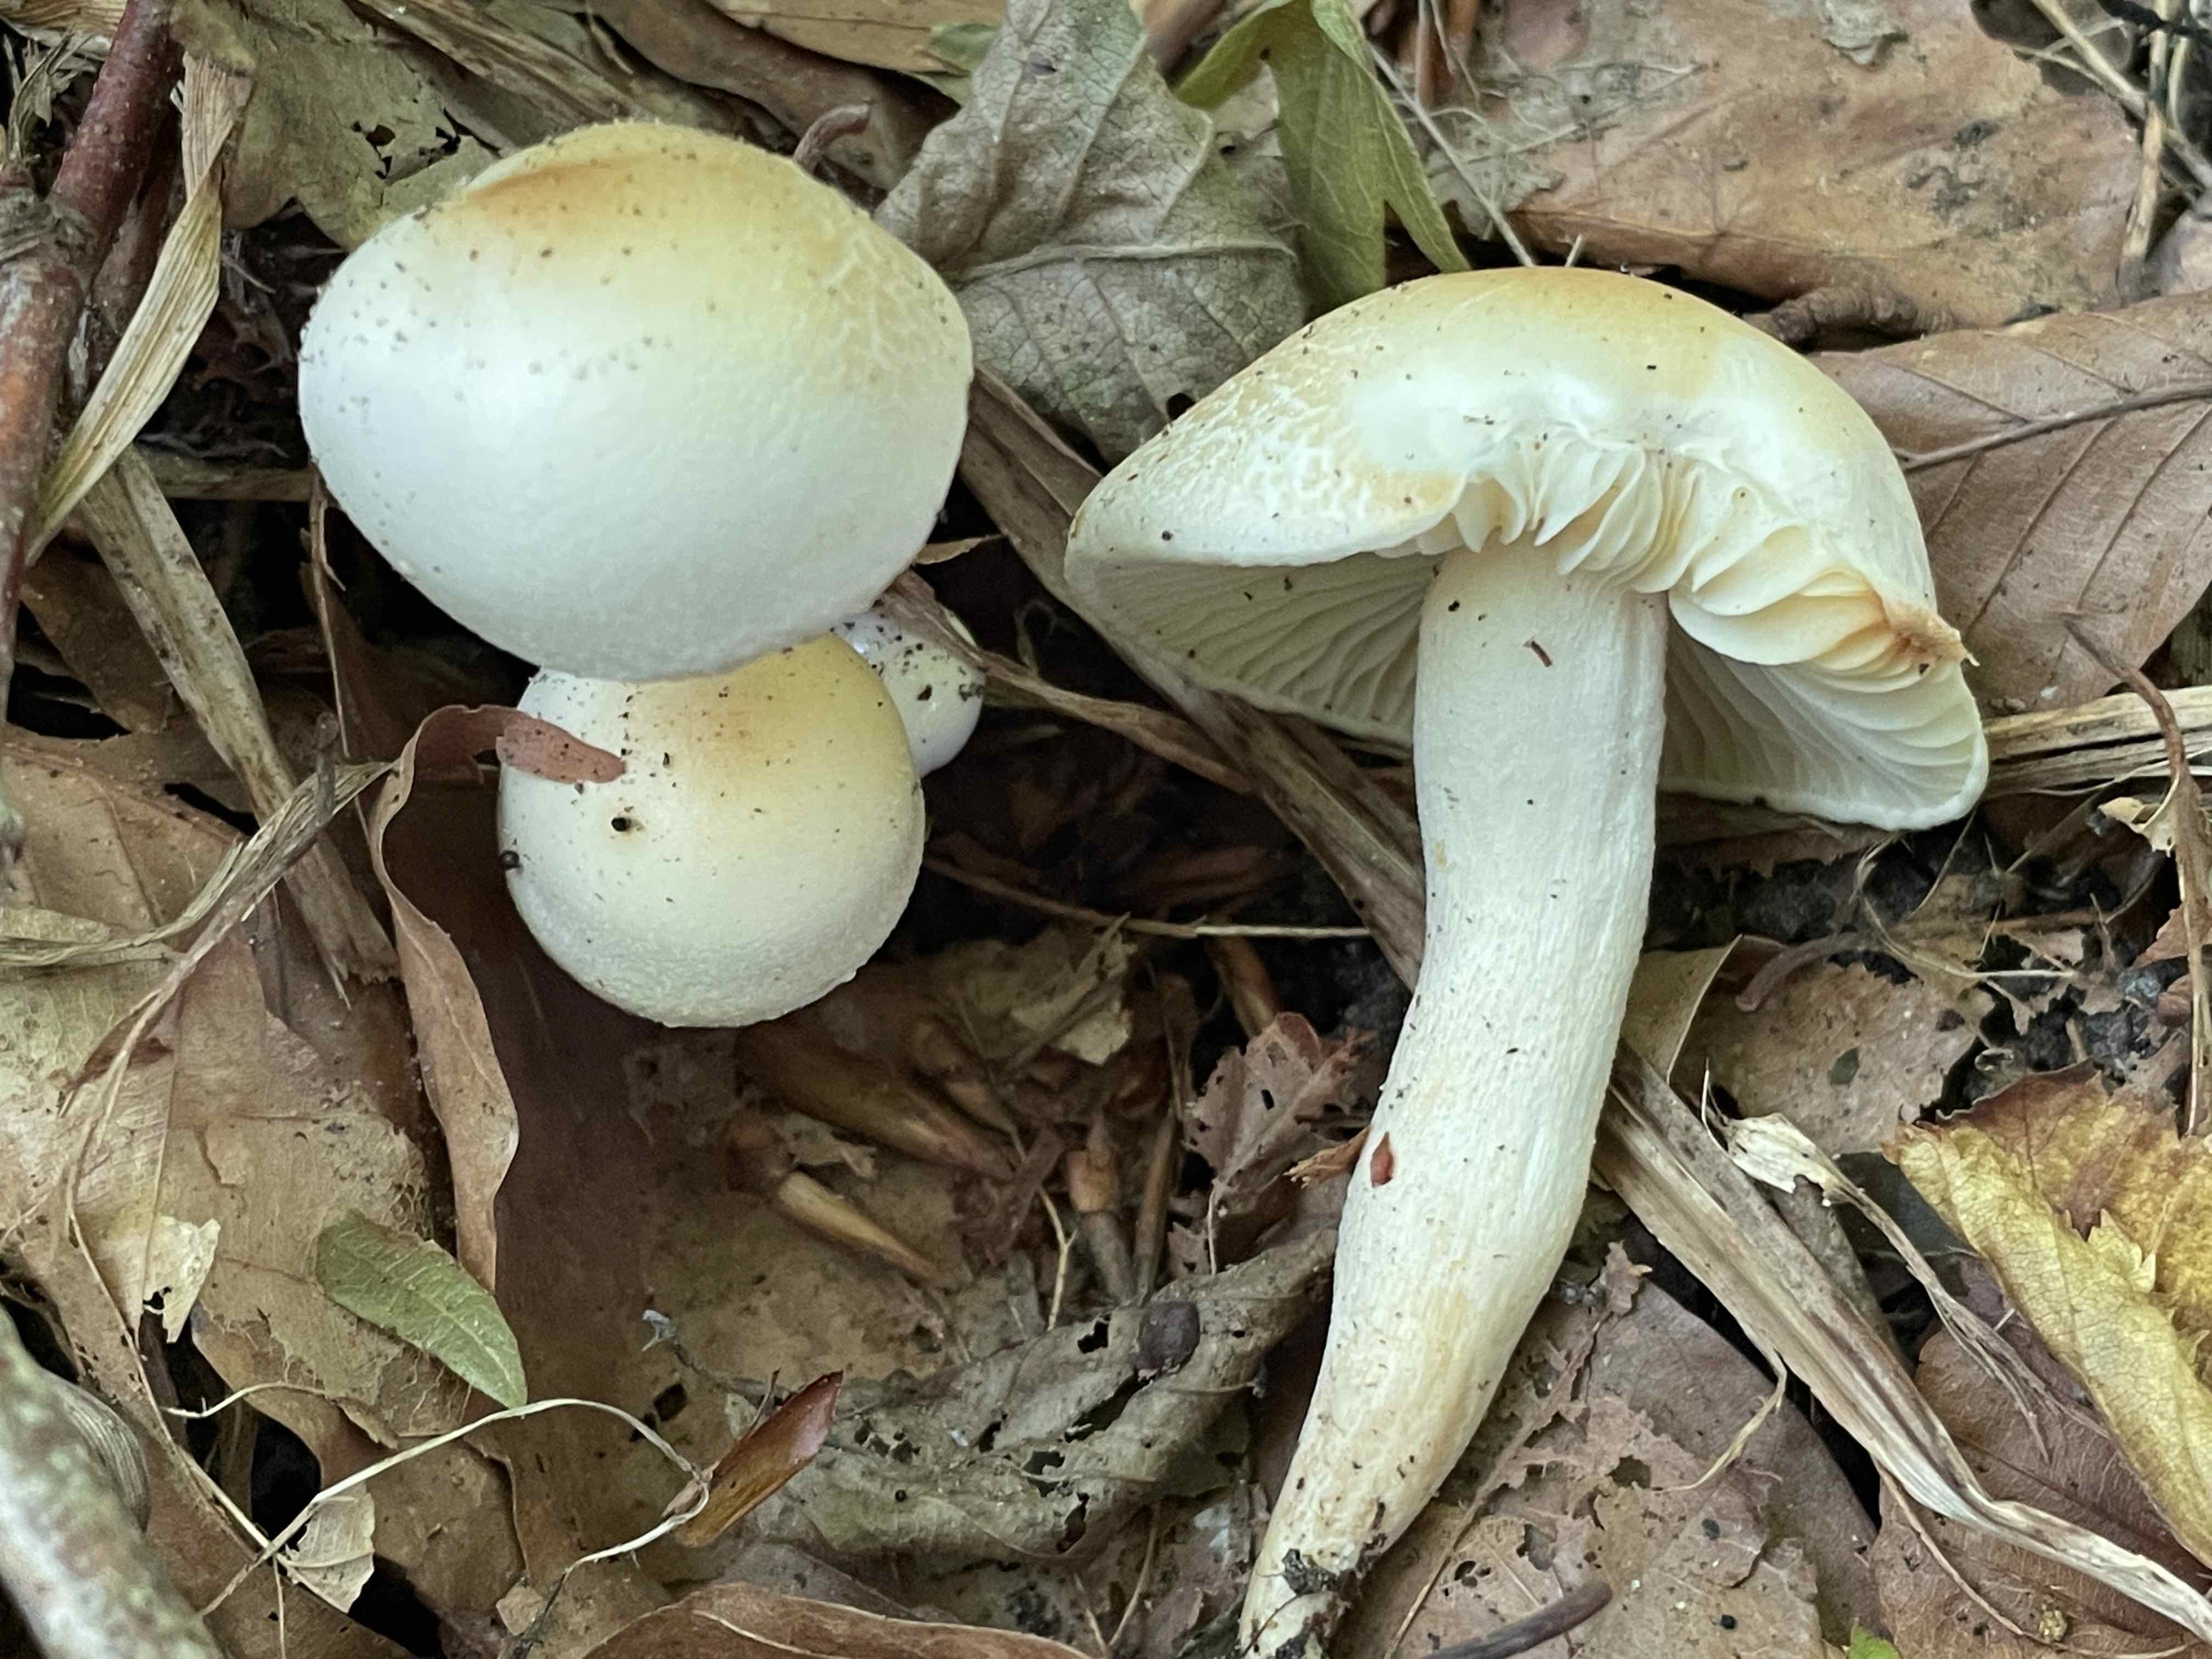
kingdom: Fungi
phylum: Basidiomycota
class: Agaricomycetes
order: Agaricales
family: Hygrophoraceae
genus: Hygrophorus
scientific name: Hygrophorus discoxanthus
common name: ildelugtende sneglehat
